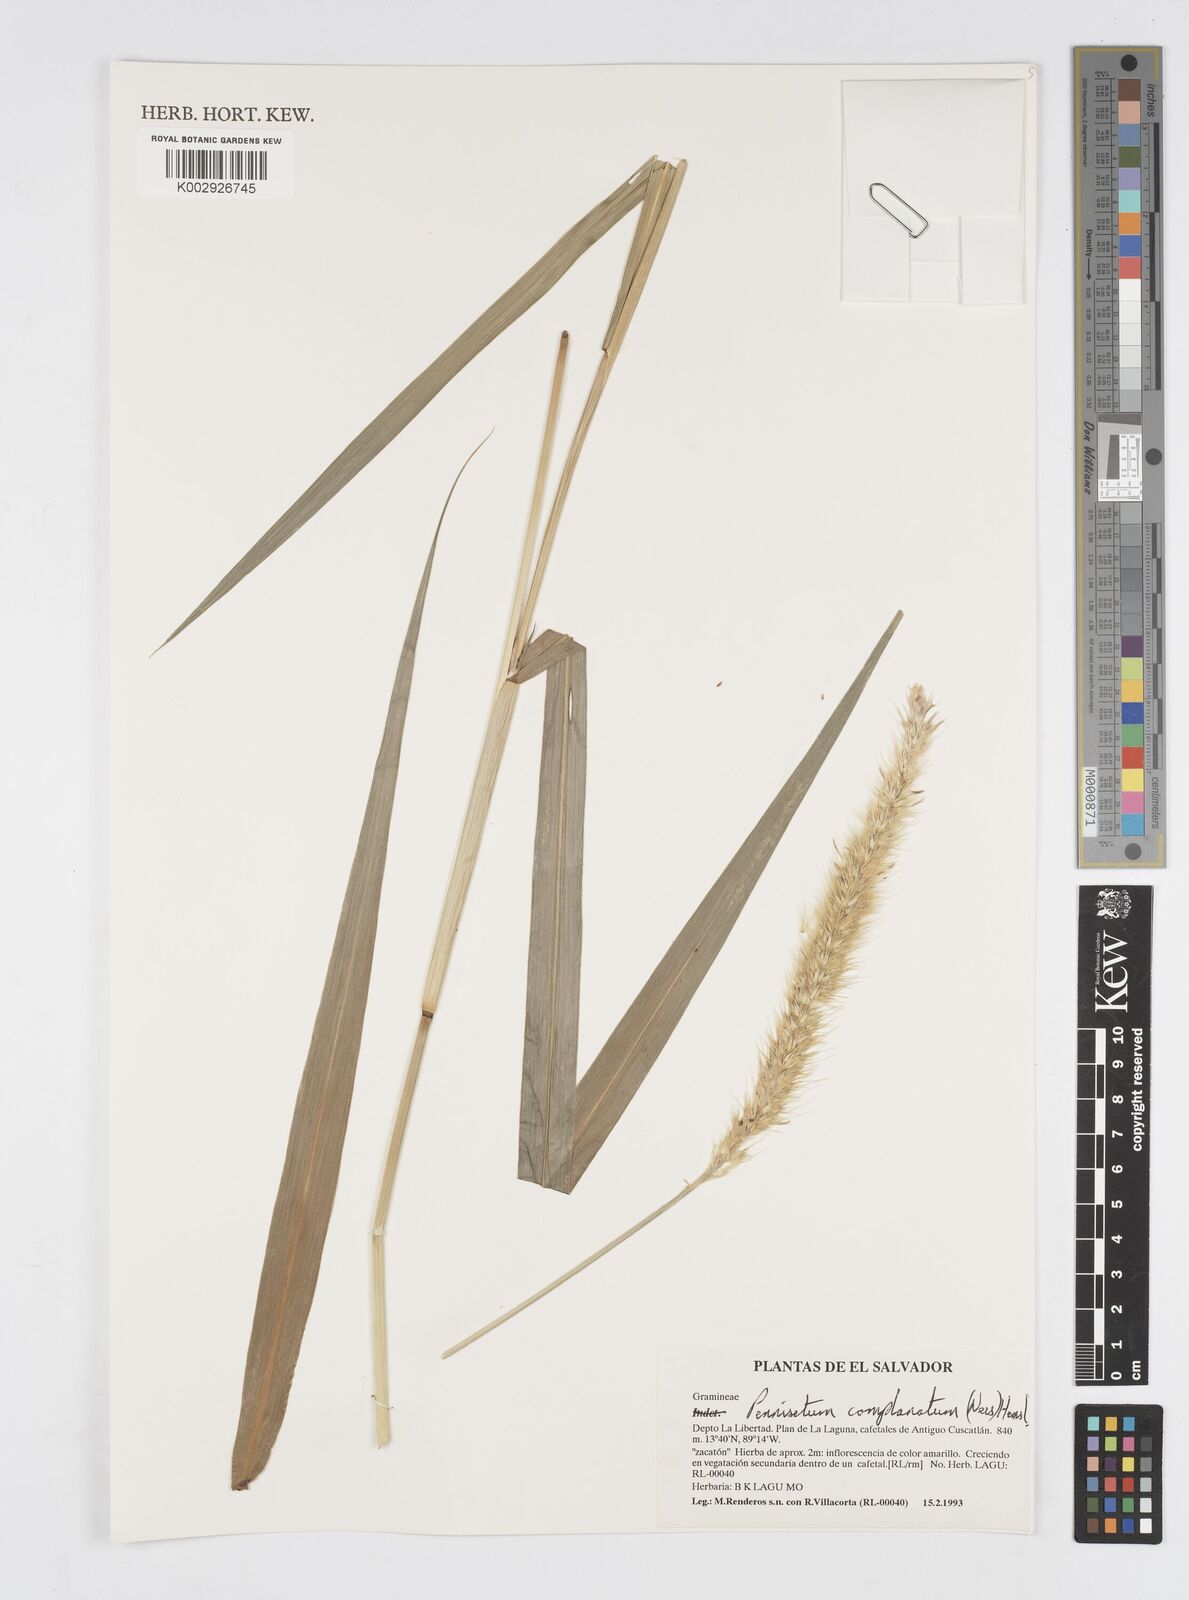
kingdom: Plantae
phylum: Tracheophyta
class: Liliopsida
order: Poales
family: Poaceae
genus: Cenchrus
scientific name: Cenchrus complanatus
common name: Nicaraguan fountaingrass
